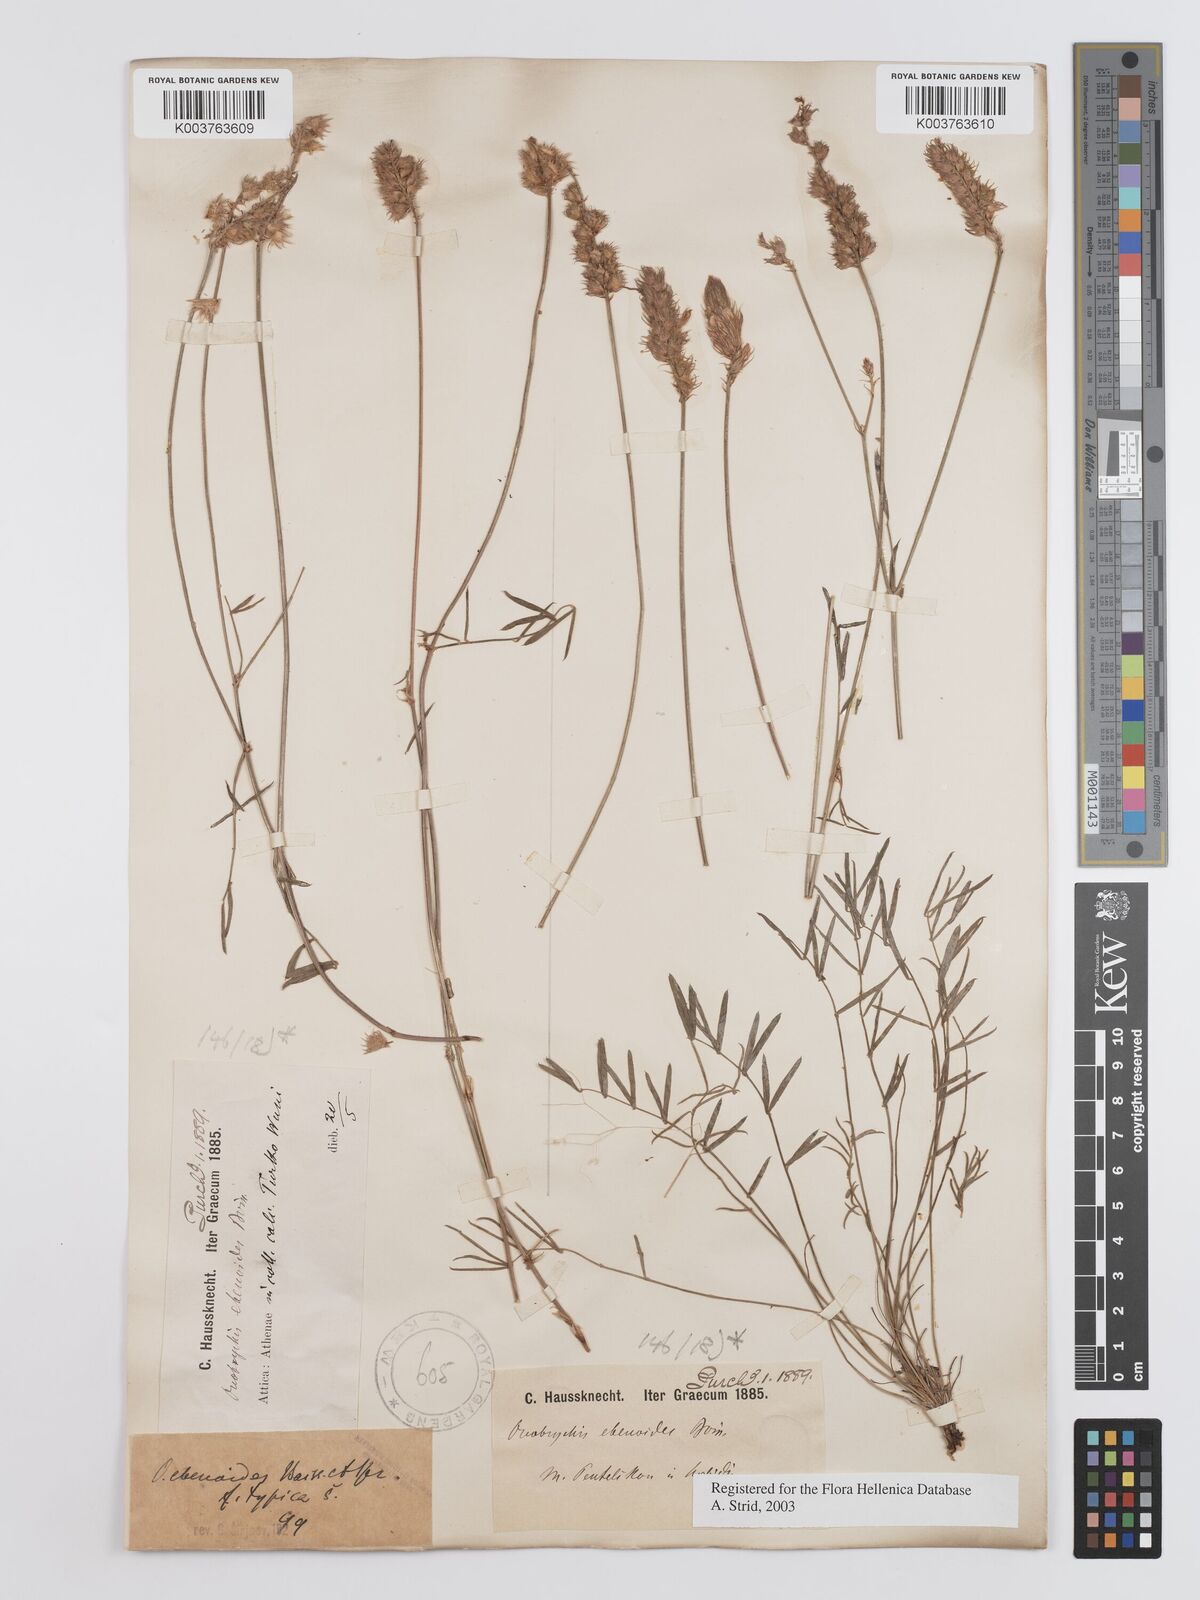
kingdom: Plantae
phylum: Tracheophyta
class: Magnoliopsida
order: Fabales
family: Fabaceae
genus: Onobrychis
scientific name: Onobrychis ebenoides
